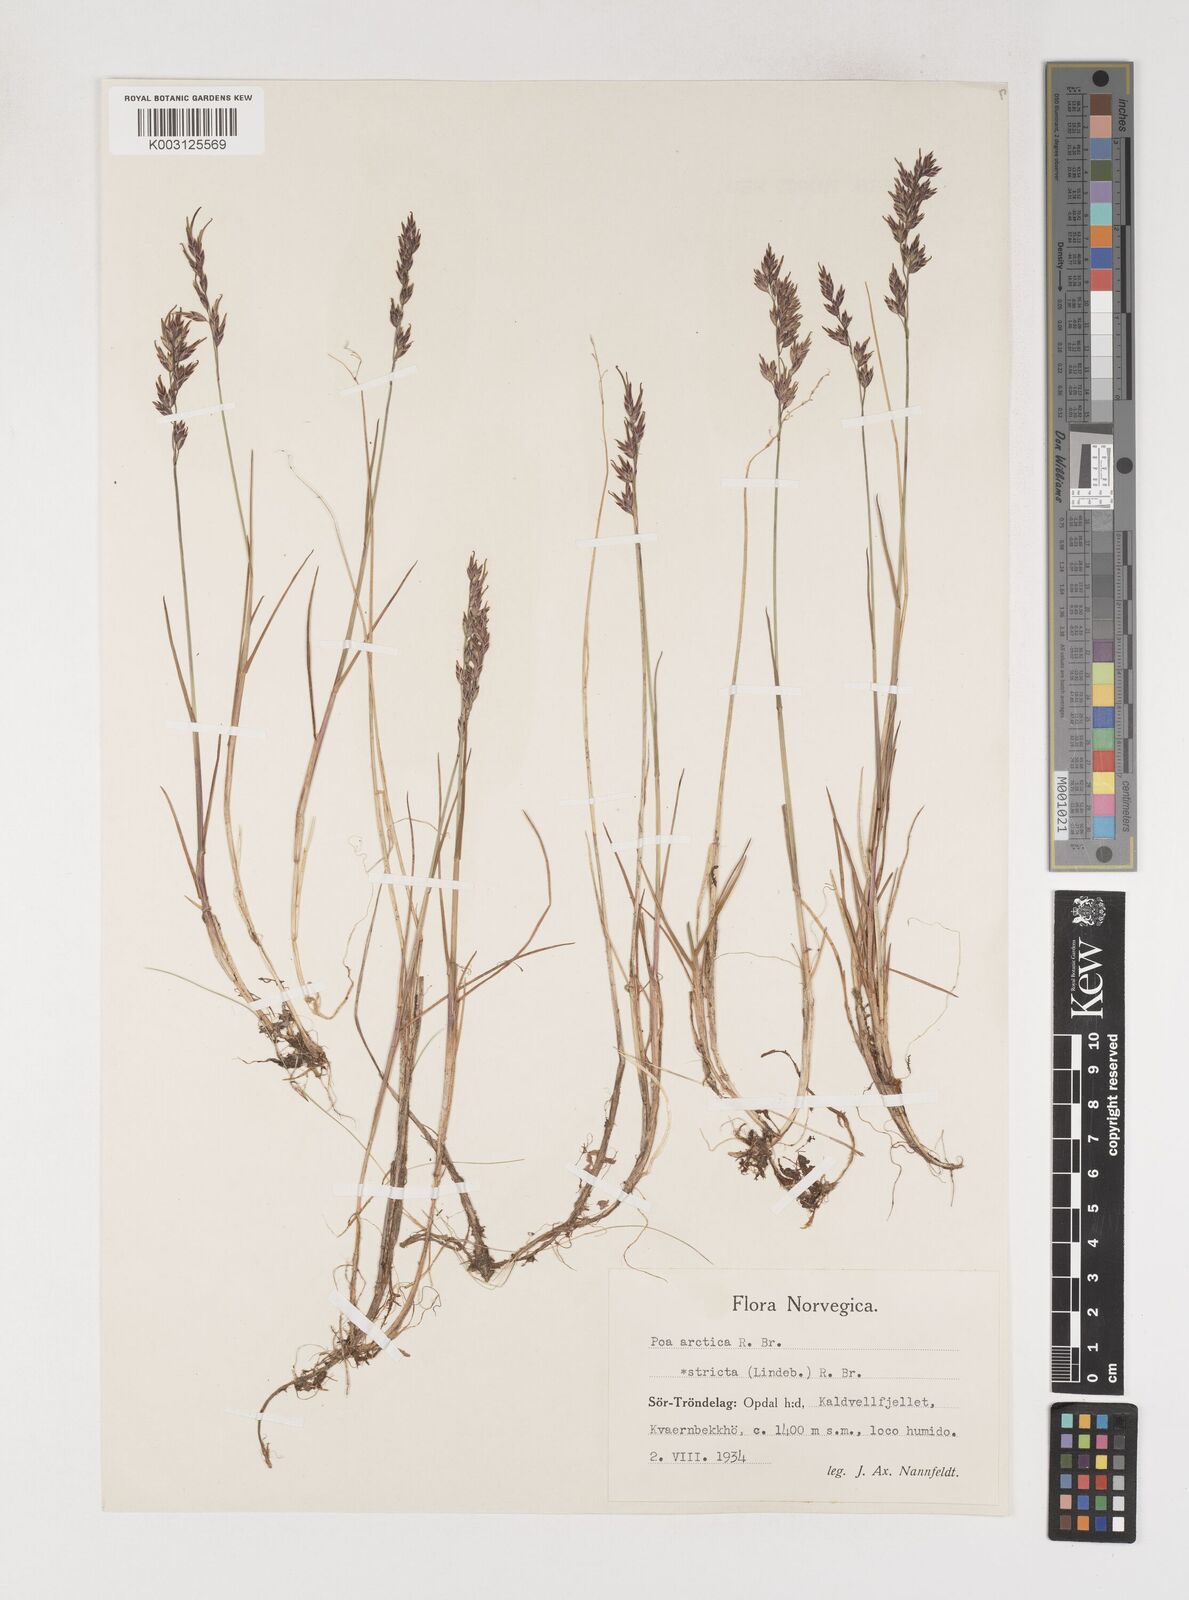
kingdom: Plantae
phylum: Tracheophyta
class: Liliopsida
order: Poales
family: Poaceae
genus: Poa
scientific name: Poa arctica
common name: Arctic bluegrass
